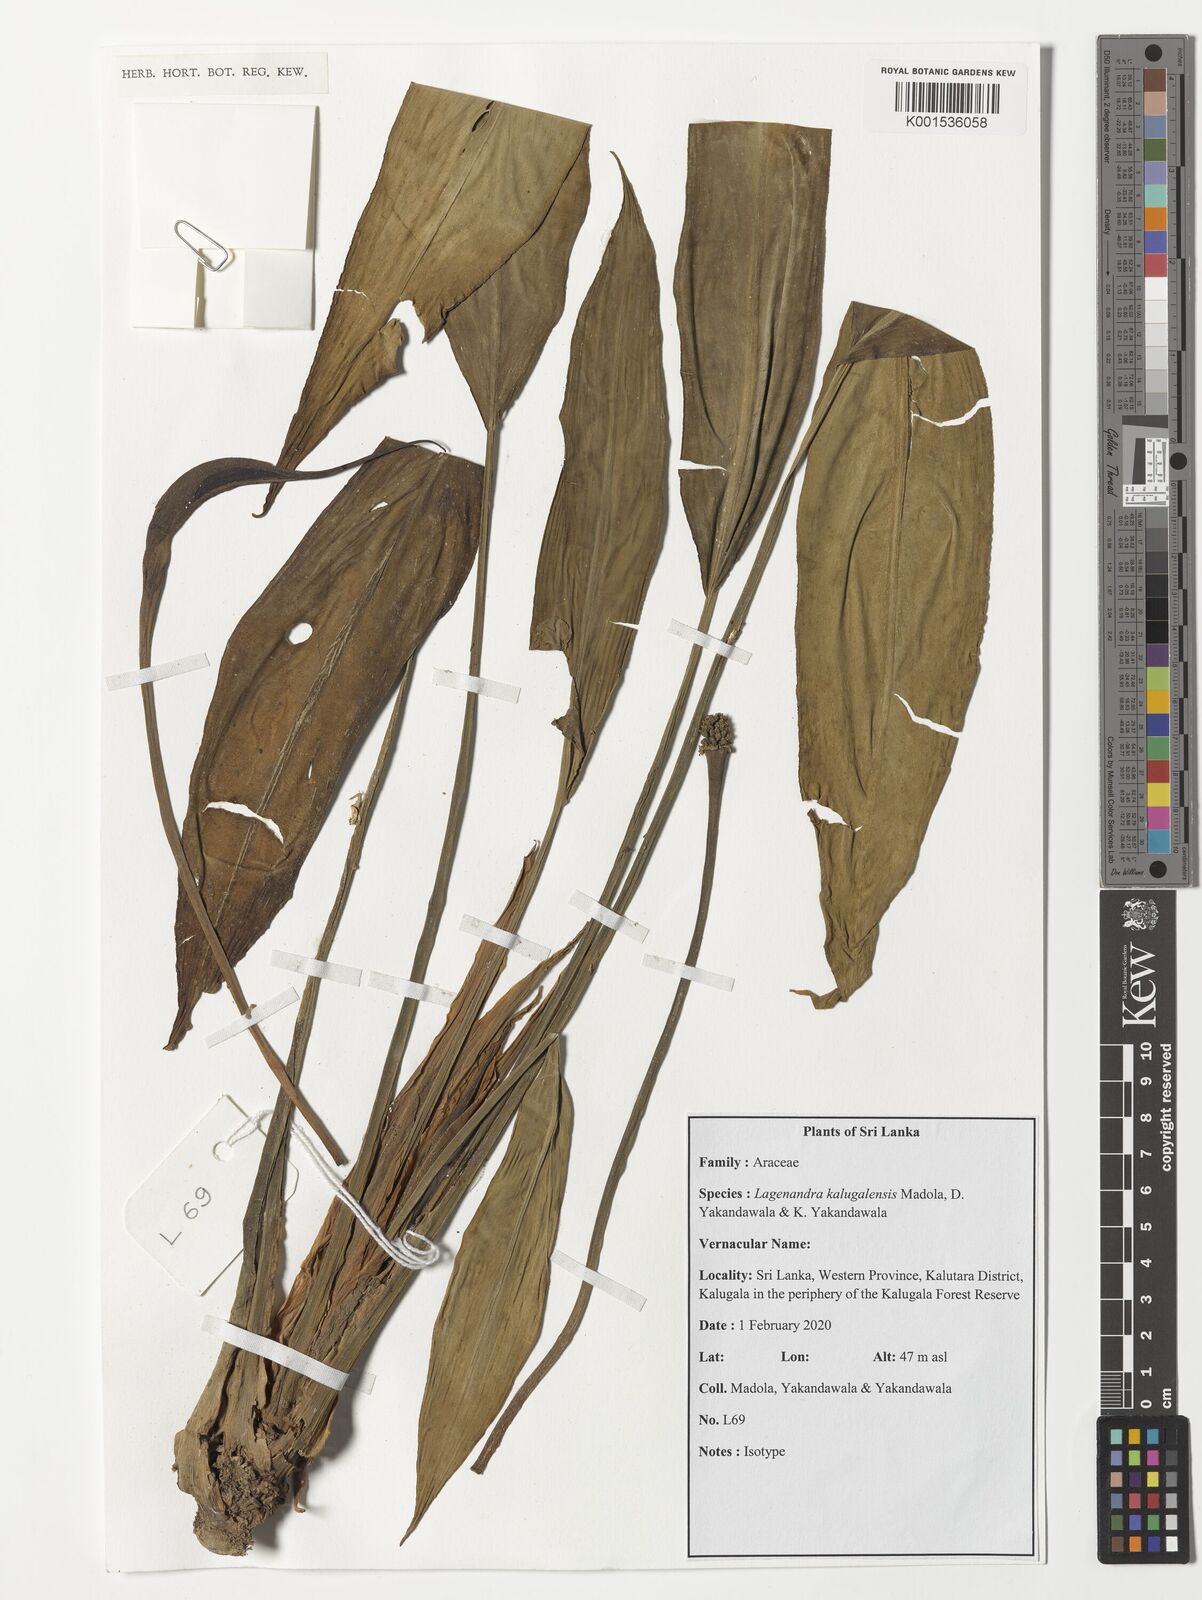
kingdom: Plantae
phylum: Tracheophyta
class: Liliopsida
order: Alismatales
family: Araceae
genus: Lagenandra
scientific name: Lagenandra
